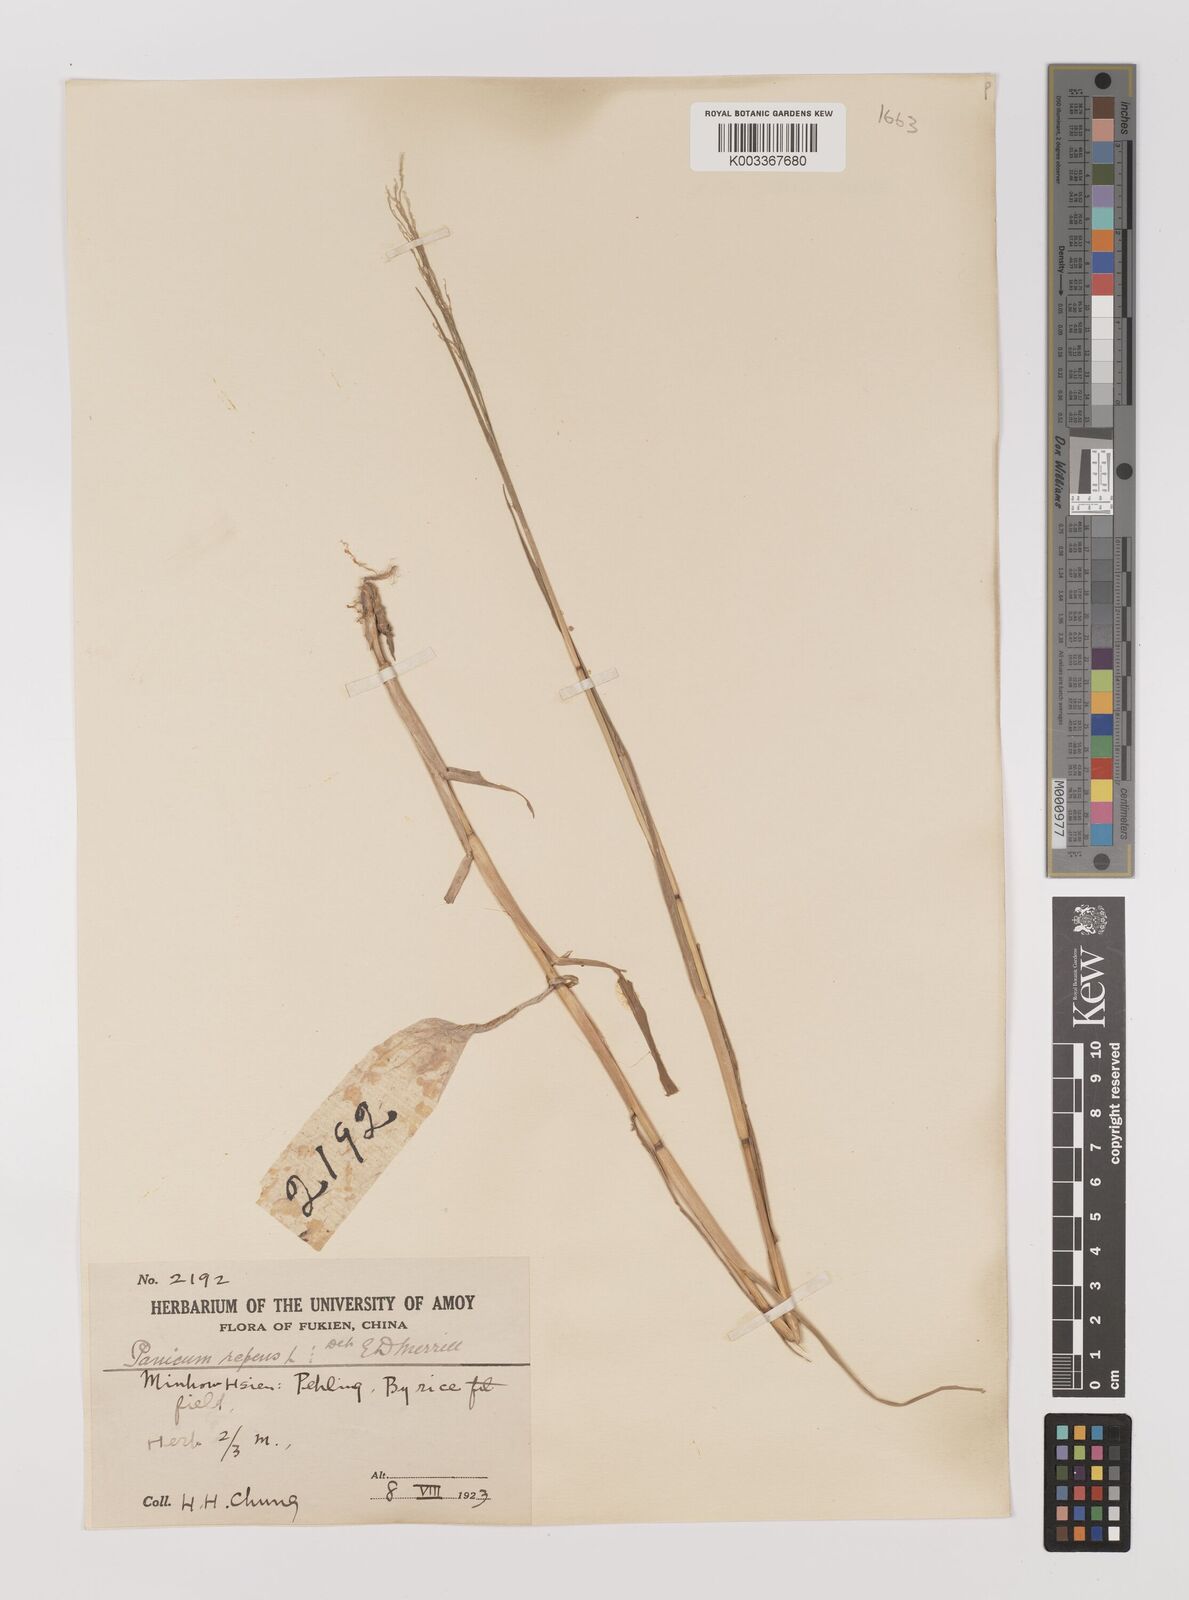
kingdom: Plantae
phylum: Tracheophyta
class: Liliopsida
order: Poales
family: Poaceae
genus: Panicum
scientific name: Panicum repens
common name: Torpedo grass
